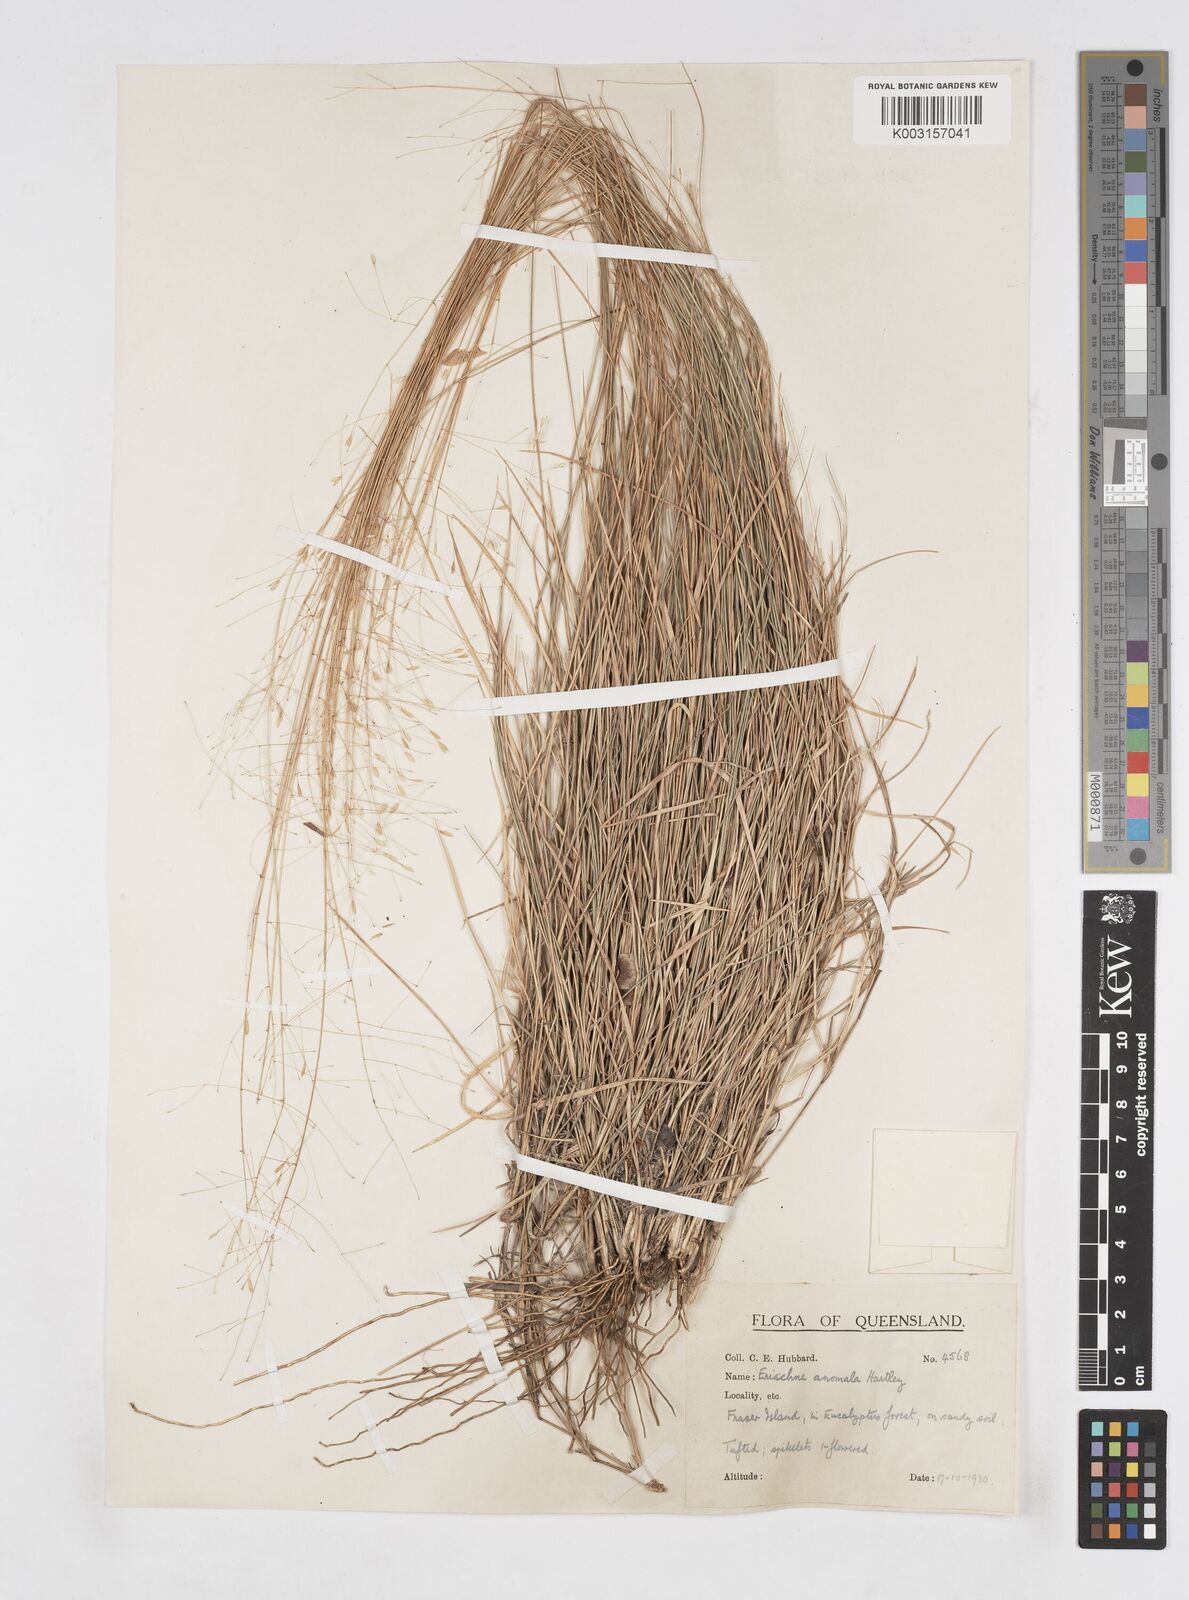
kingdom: Plantae
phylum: Tracheophyta
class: Liliopsida
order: Poales
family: Poaceae
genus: Eriachne
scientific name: Eriachne pallescens
